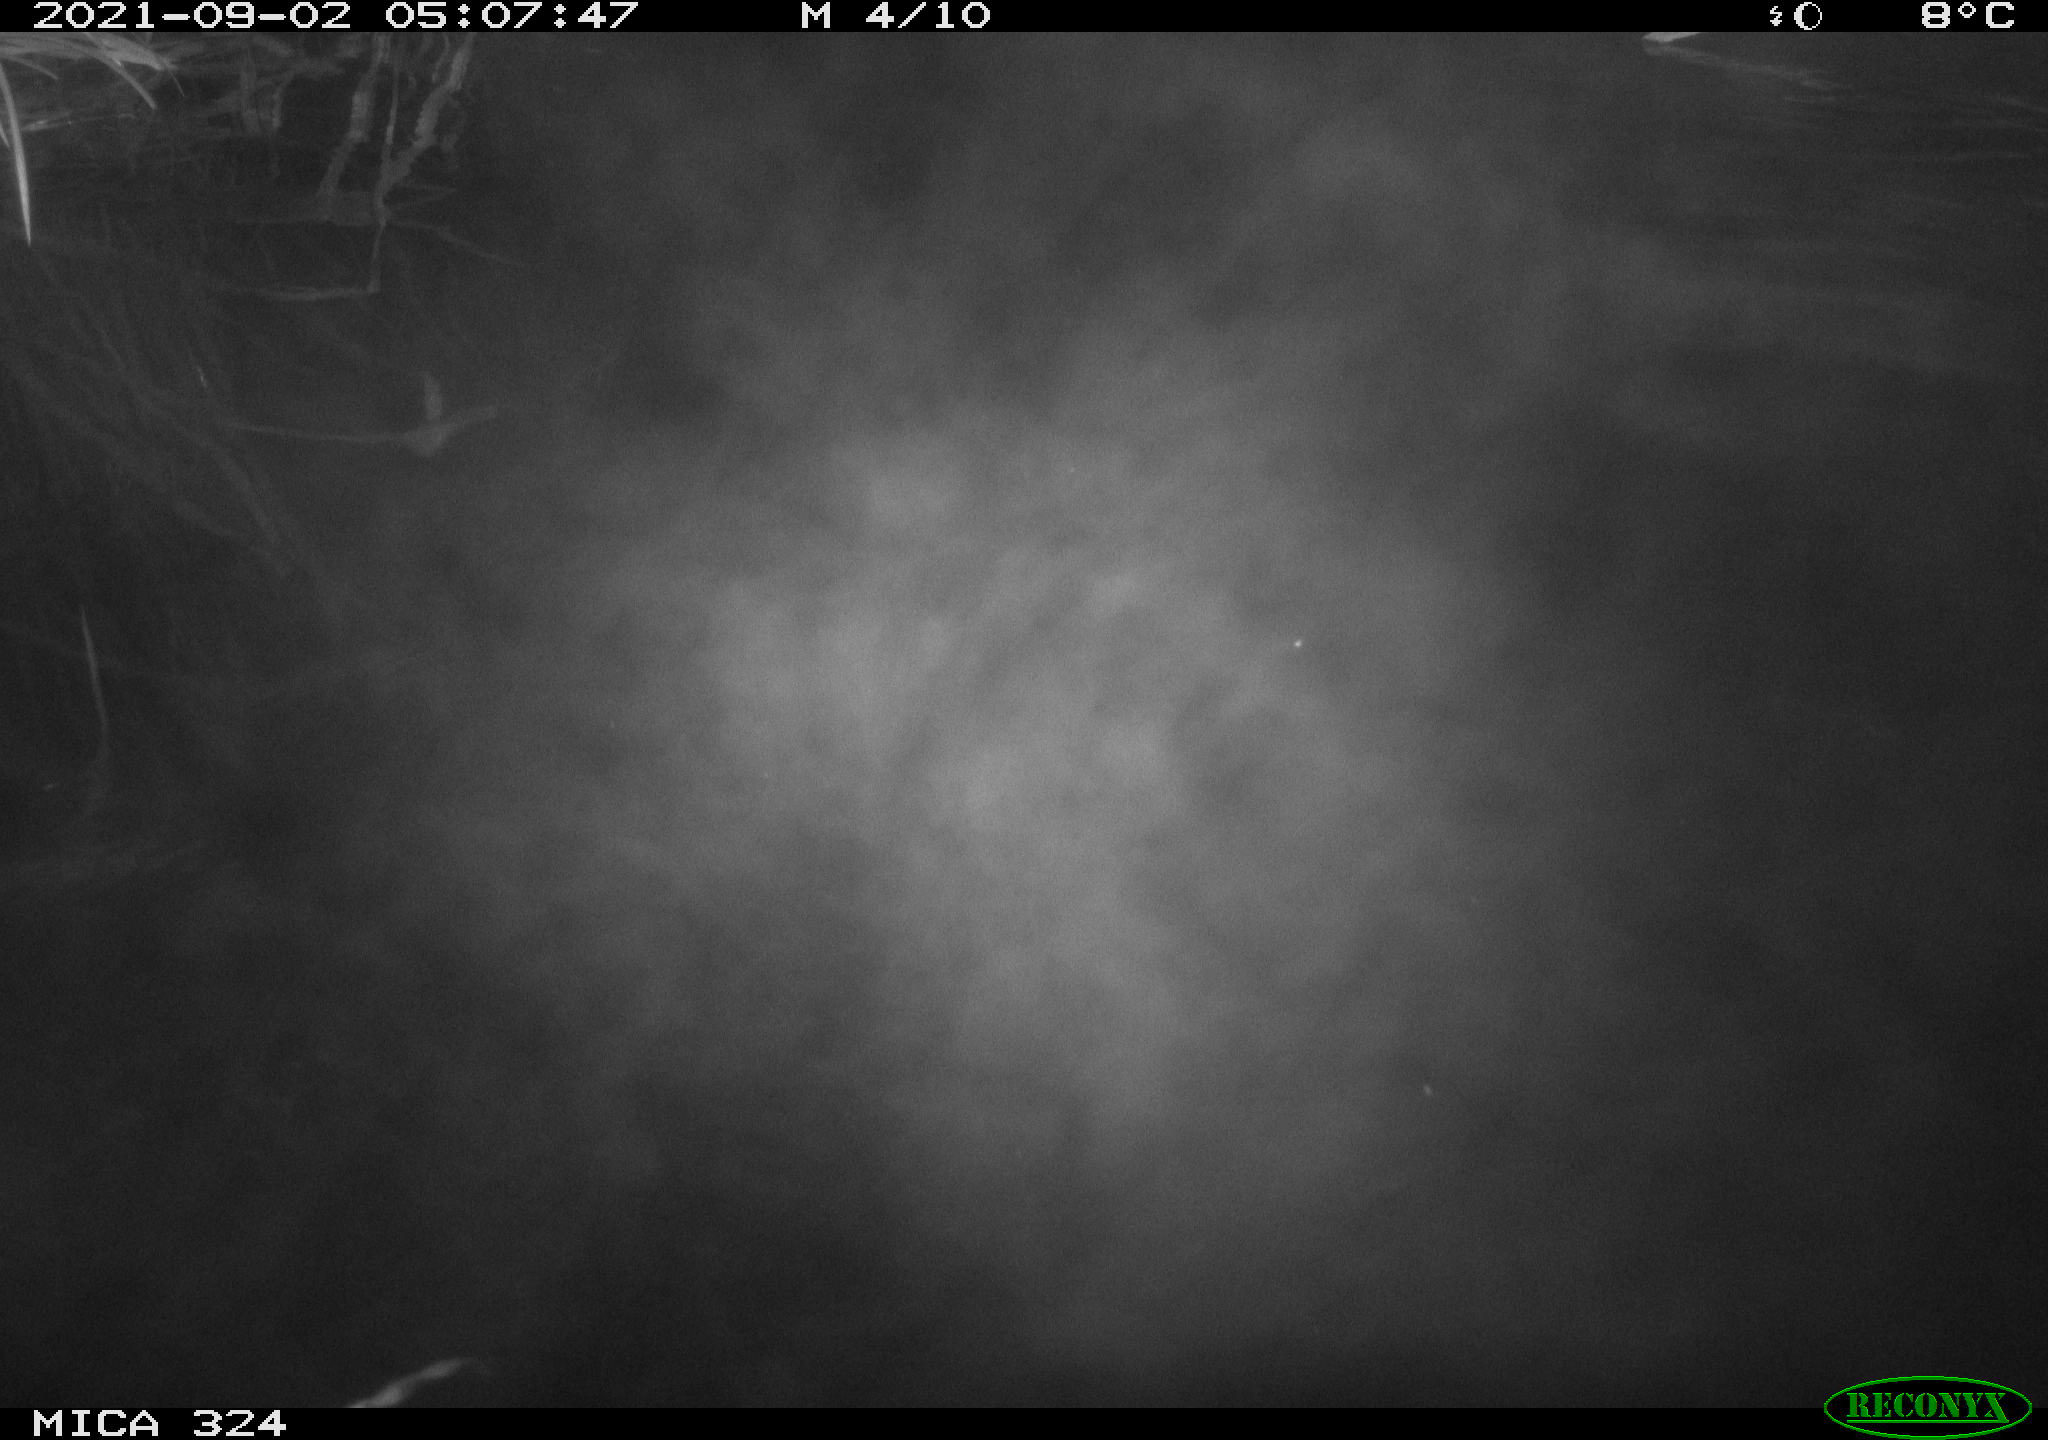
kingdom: Animalia
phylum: Chordata
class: Mammalia
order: Rodentia
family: Cricetidae
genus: Ondatra
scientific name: Ondatra zibethicus
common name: Muskrat
